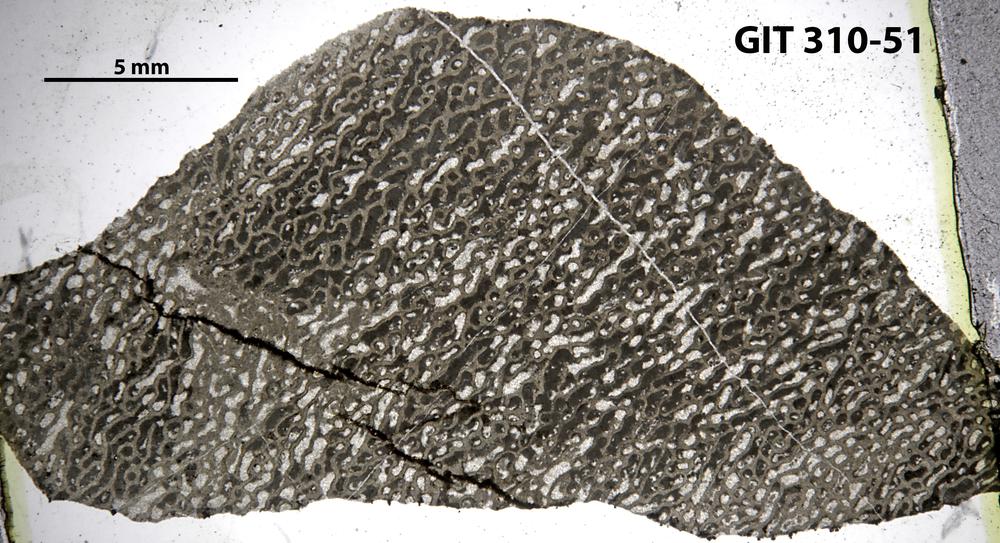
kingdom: Animalia
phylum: Porifera
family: Actinodictyidae
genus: Camptodictyon
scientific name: Camptodictyon
